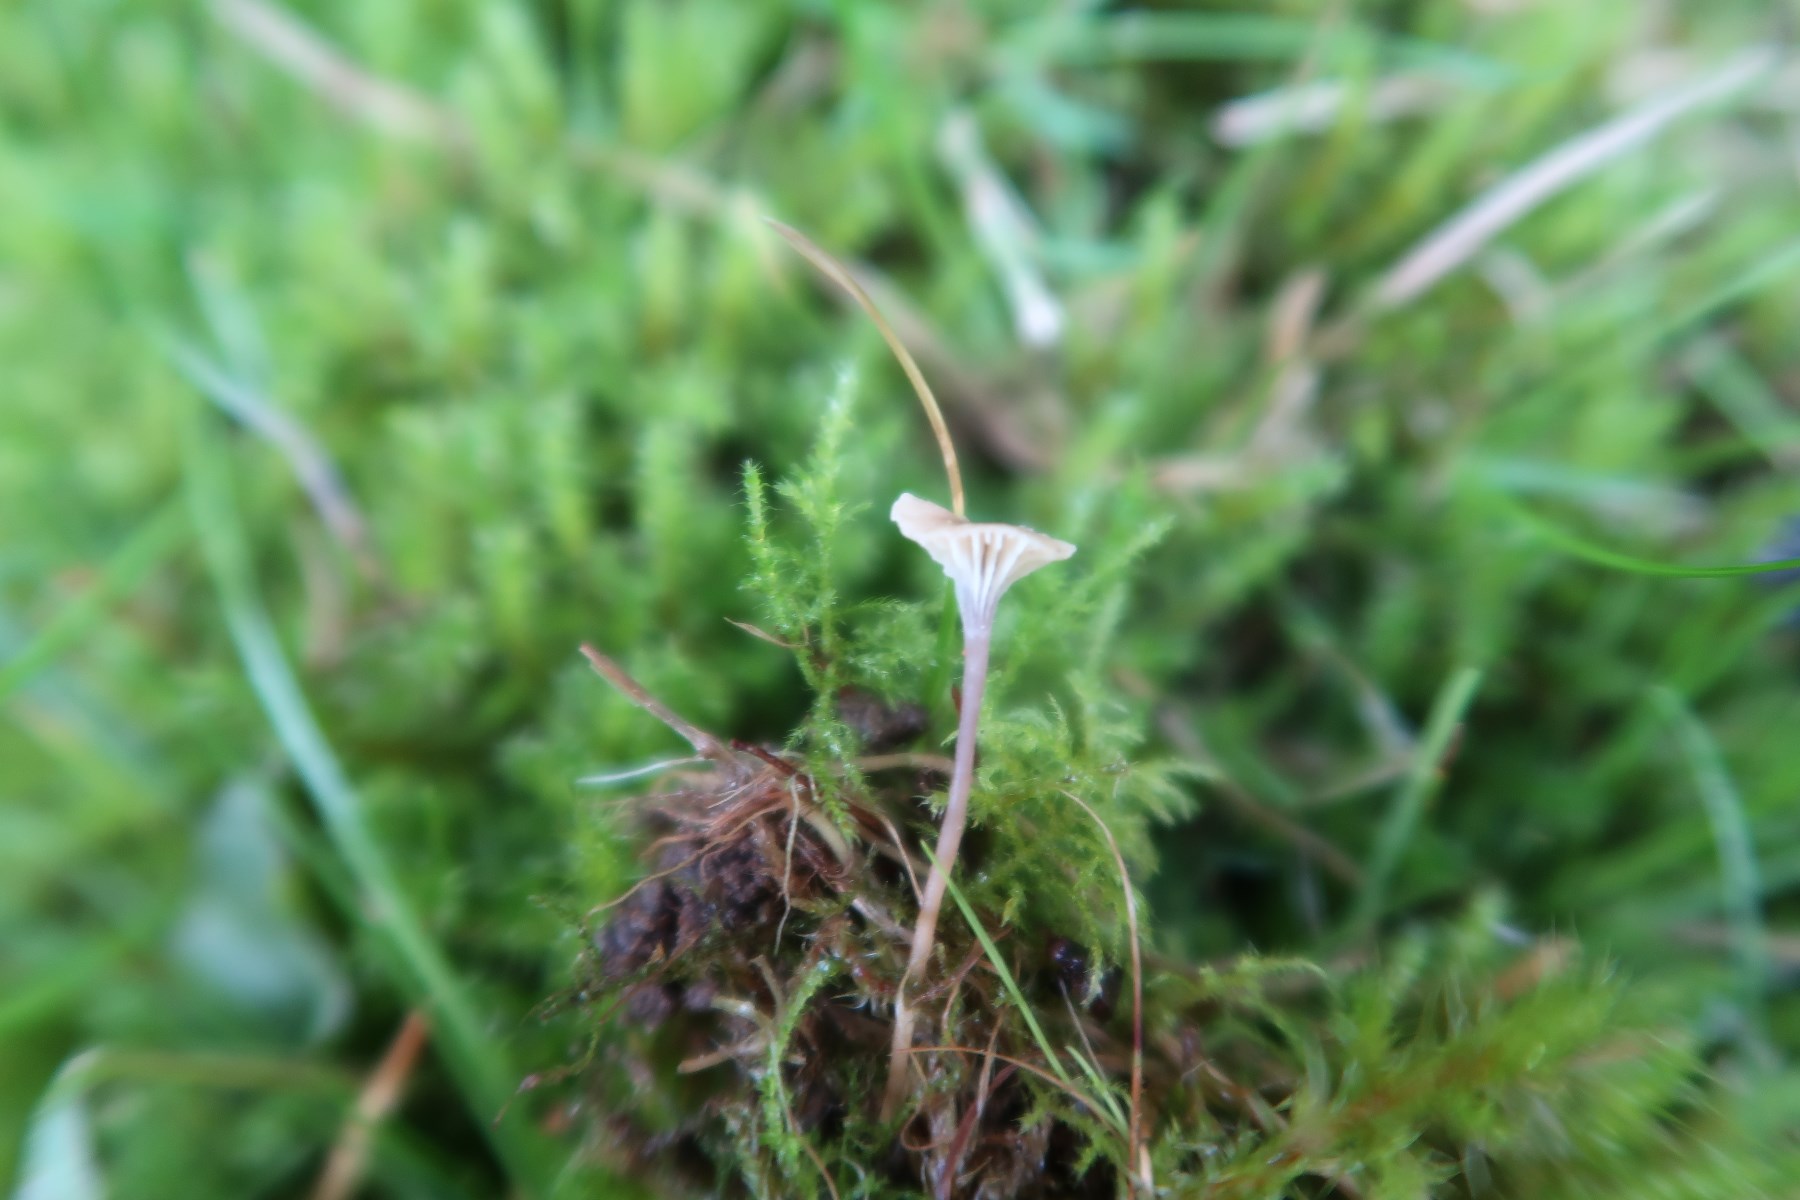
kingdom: Fungi
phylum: Basidiomycota
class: Agaricomycetes
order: Hymenochaetales
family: Rickenellaceae
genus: Rickenella
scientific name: Rickenella swartzii
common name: finstokket mosnavlehat
